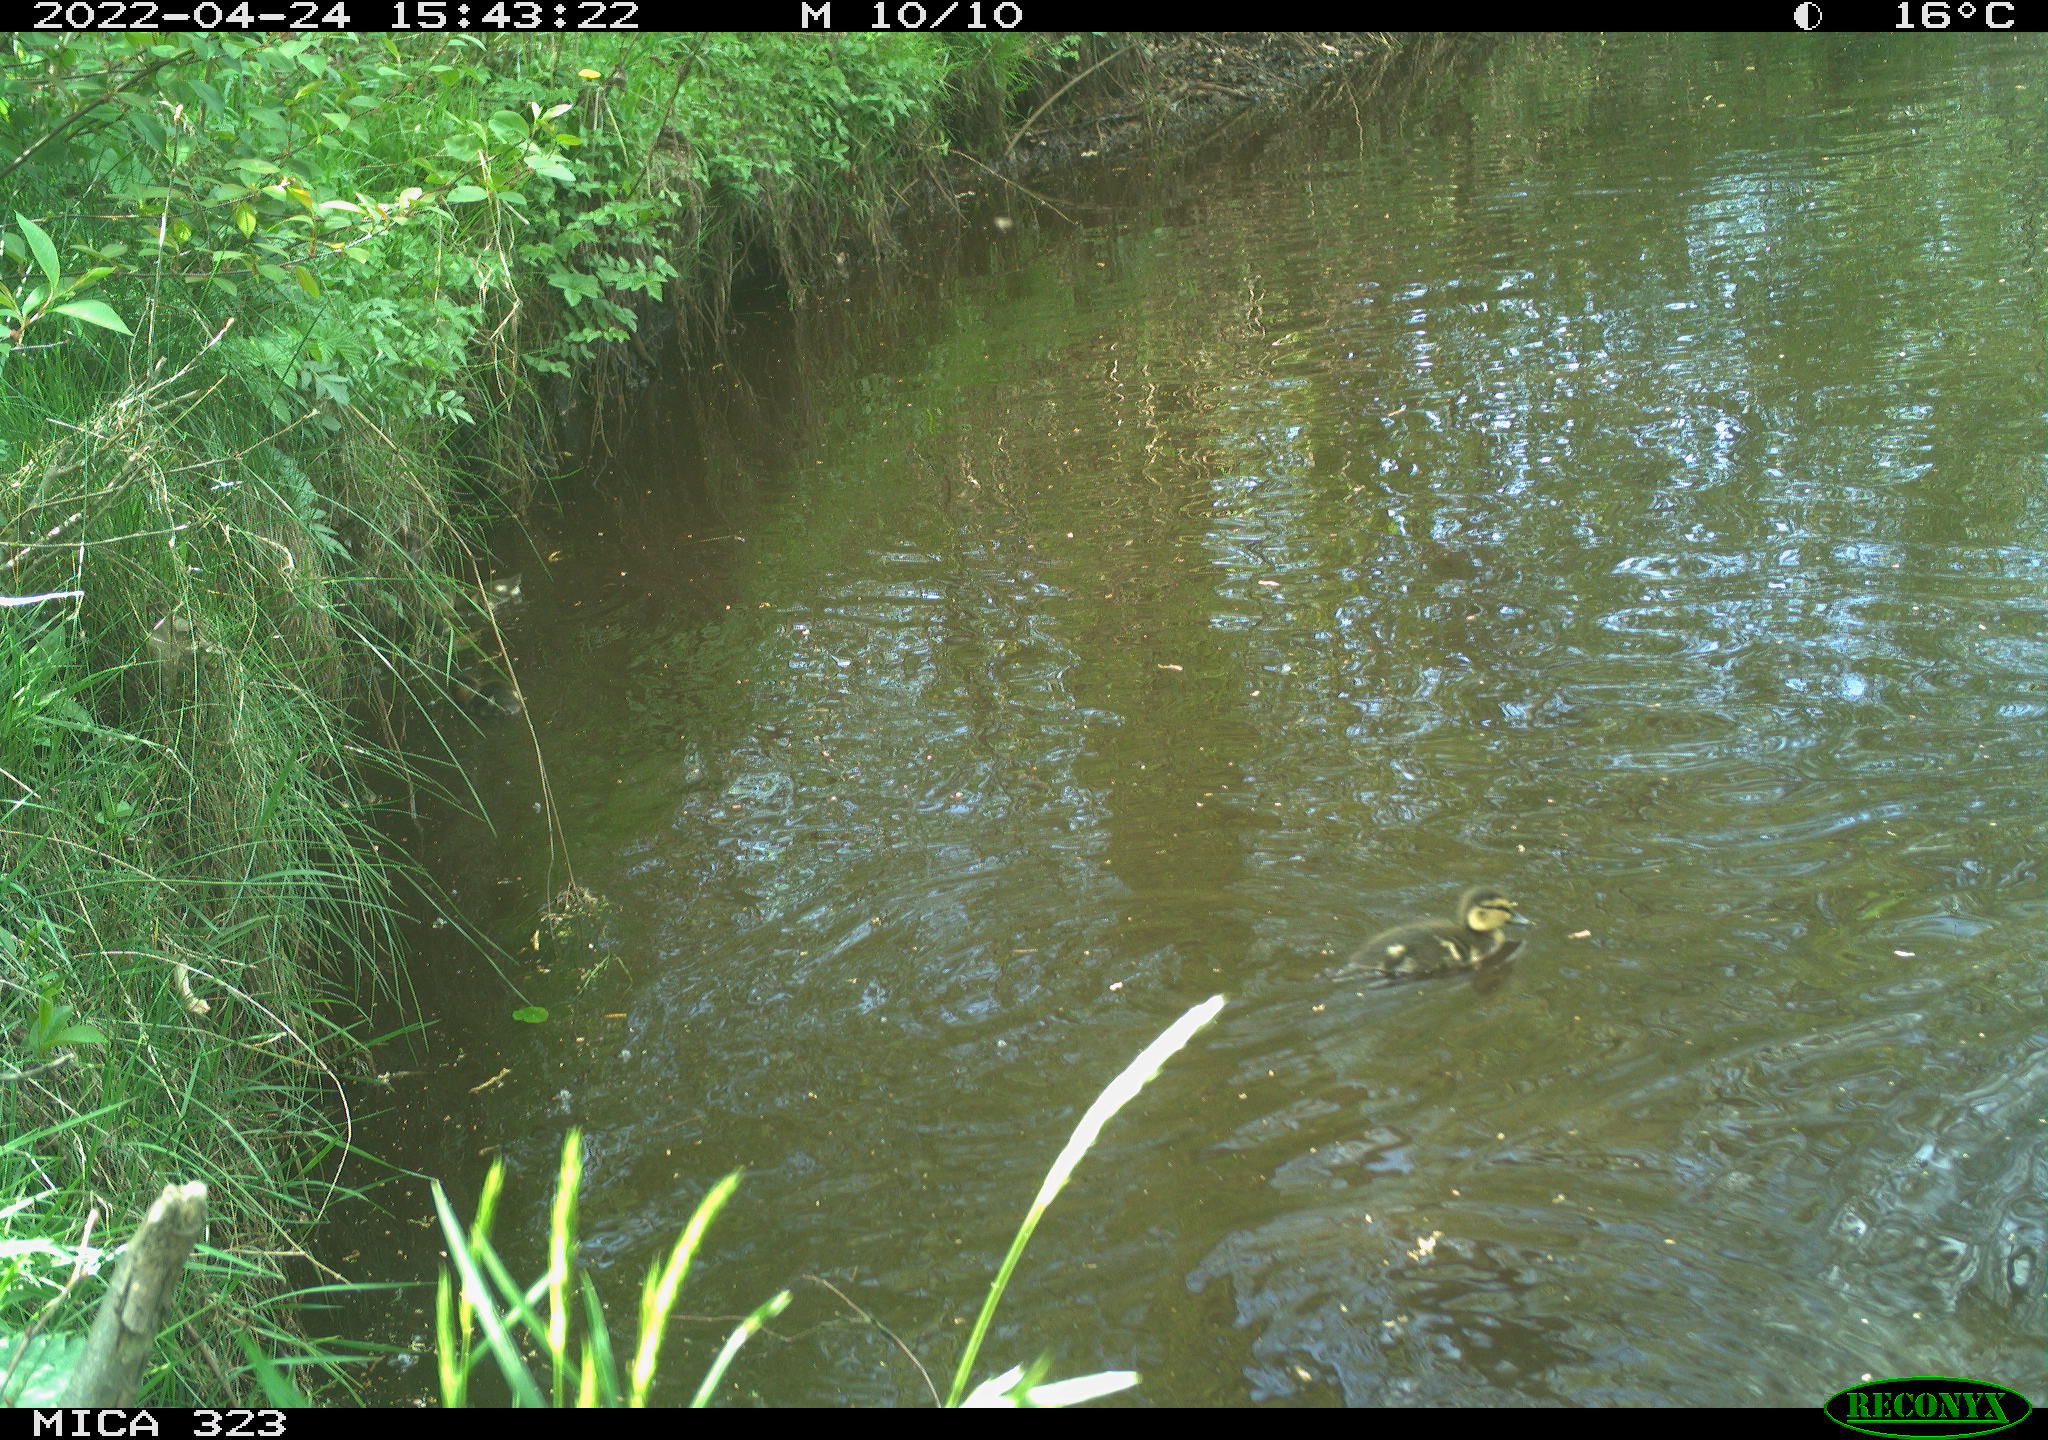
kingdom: Animalia
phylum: Chordata
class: Aves
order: Anseriformes
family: Anatidae
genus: Anas
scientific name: Anas platyrhynchos
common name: Mallard
